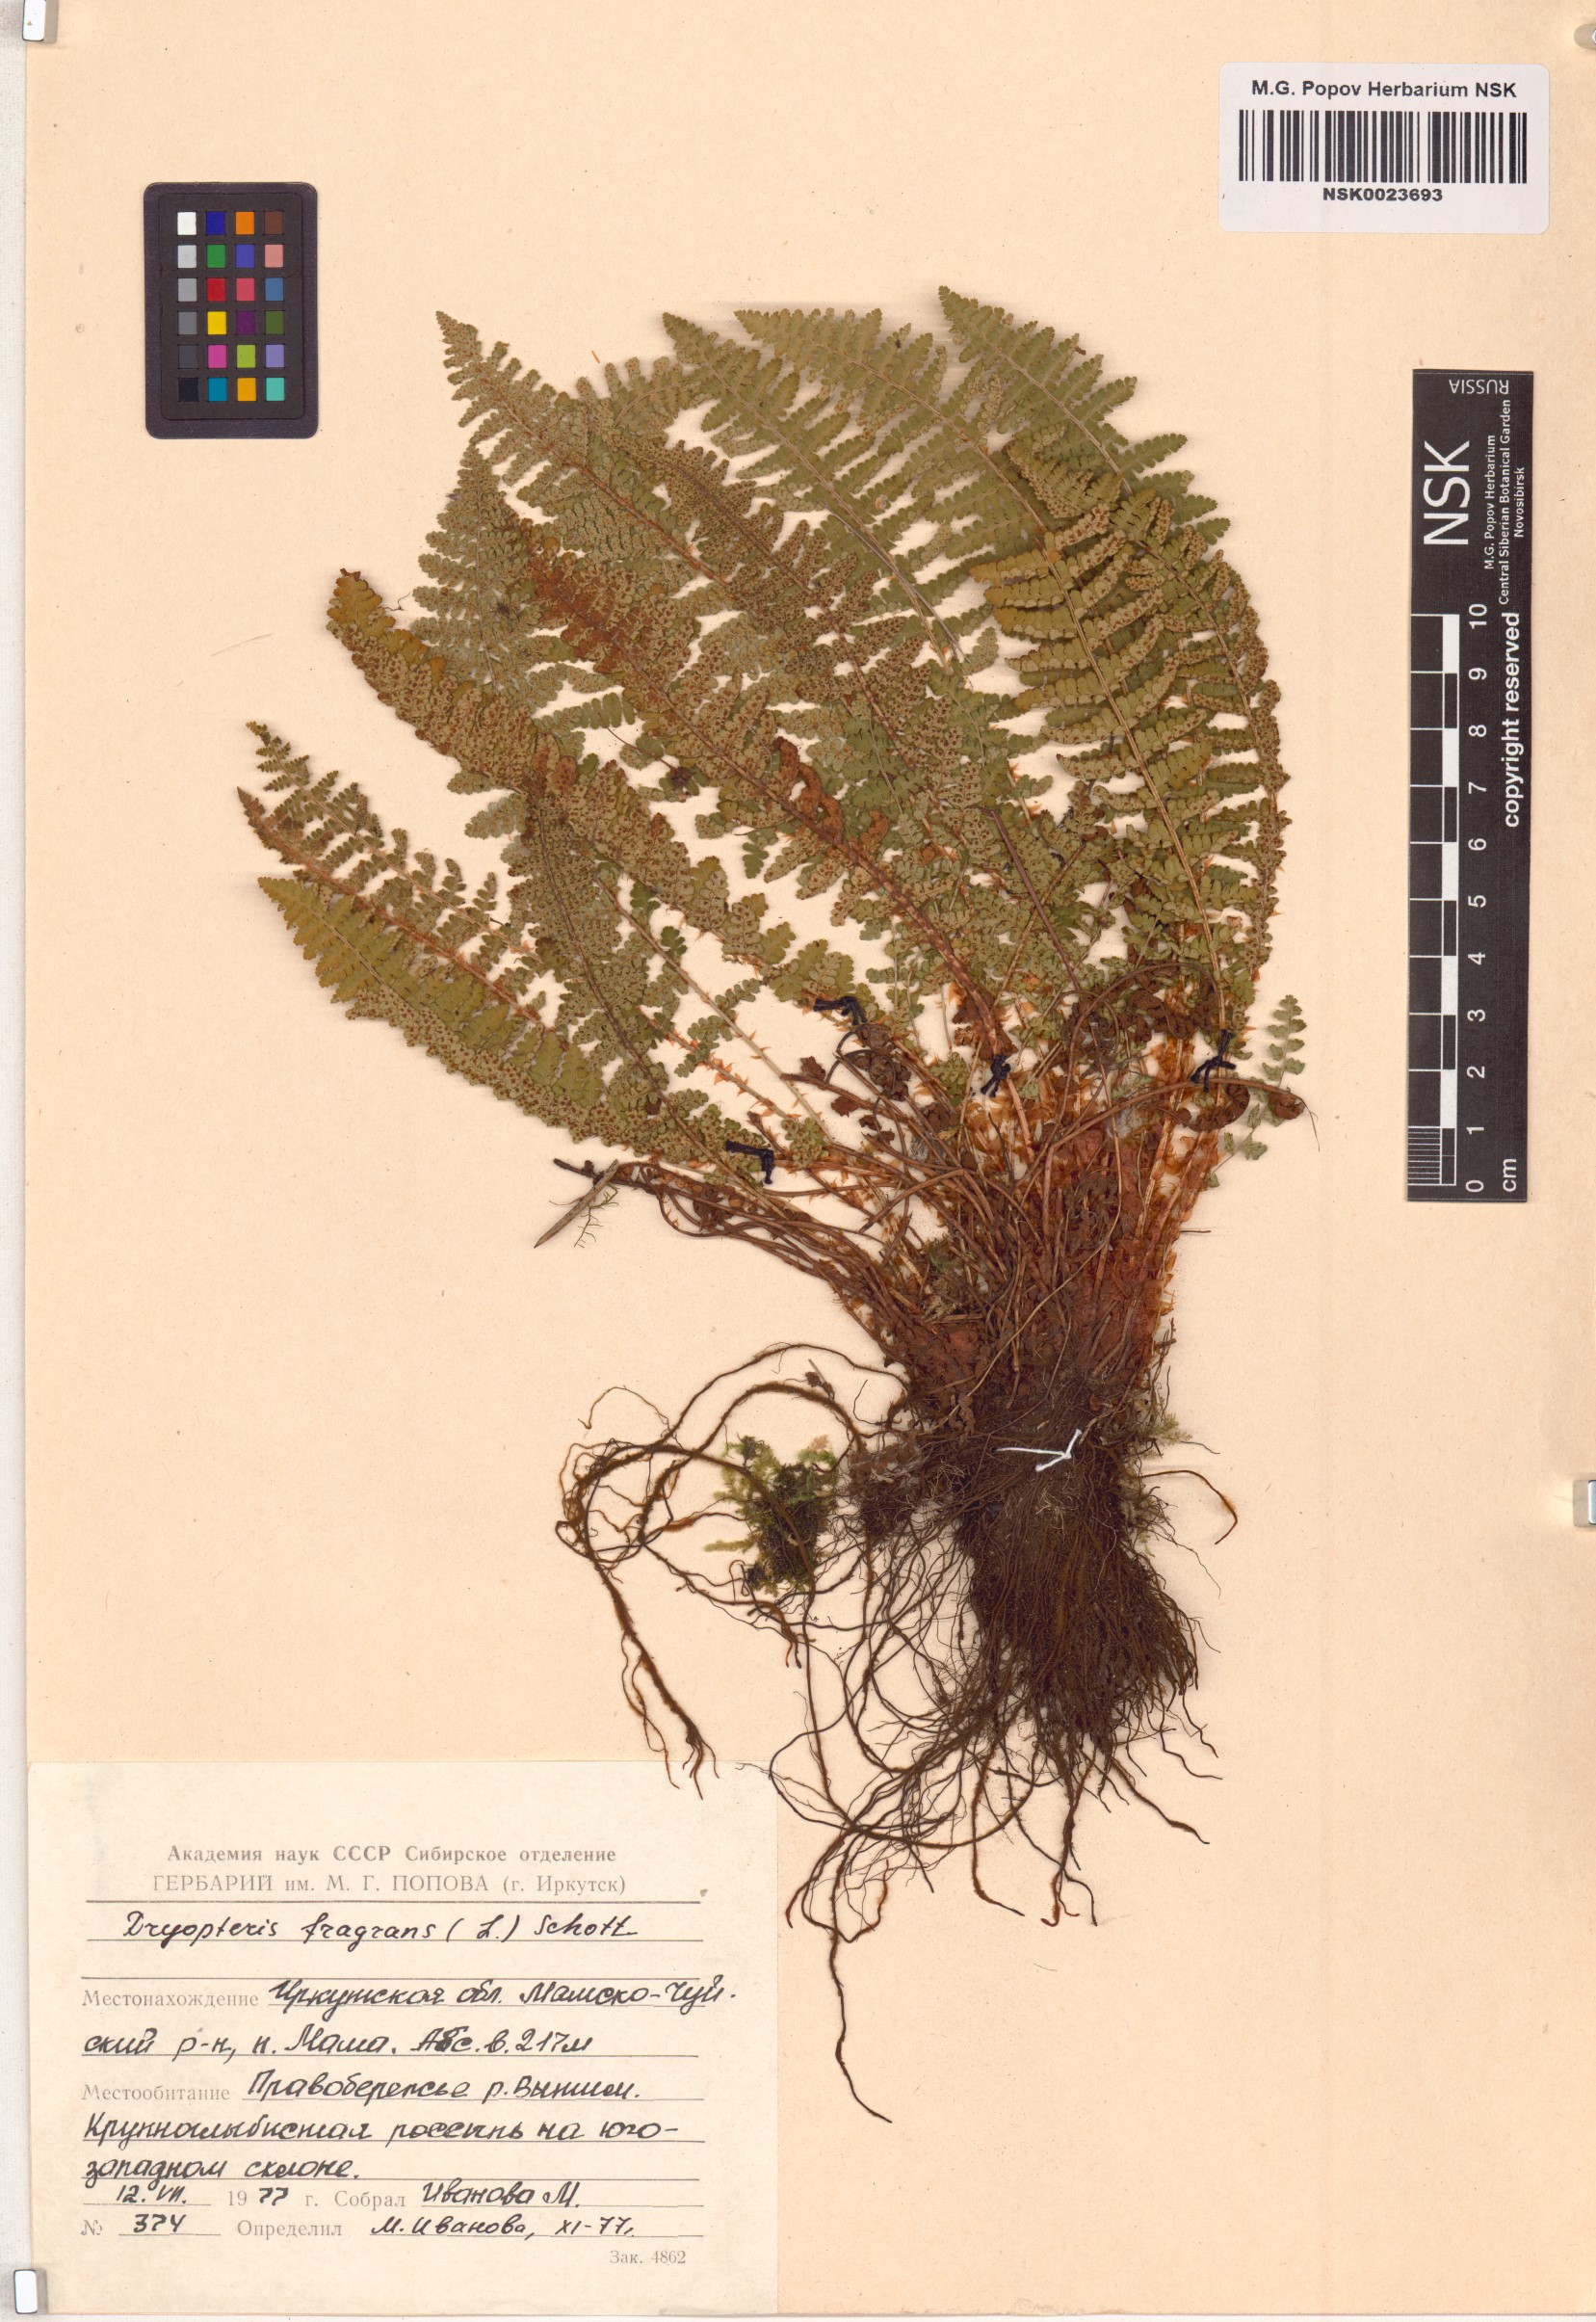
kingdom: Plantae
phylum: Tracheophyta
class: Polypodiopsida
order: Polypodiales
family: Dryopteridaceae
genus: Dryopteris
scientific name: Dryopteris fragrans
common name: Fragrant wood fern
